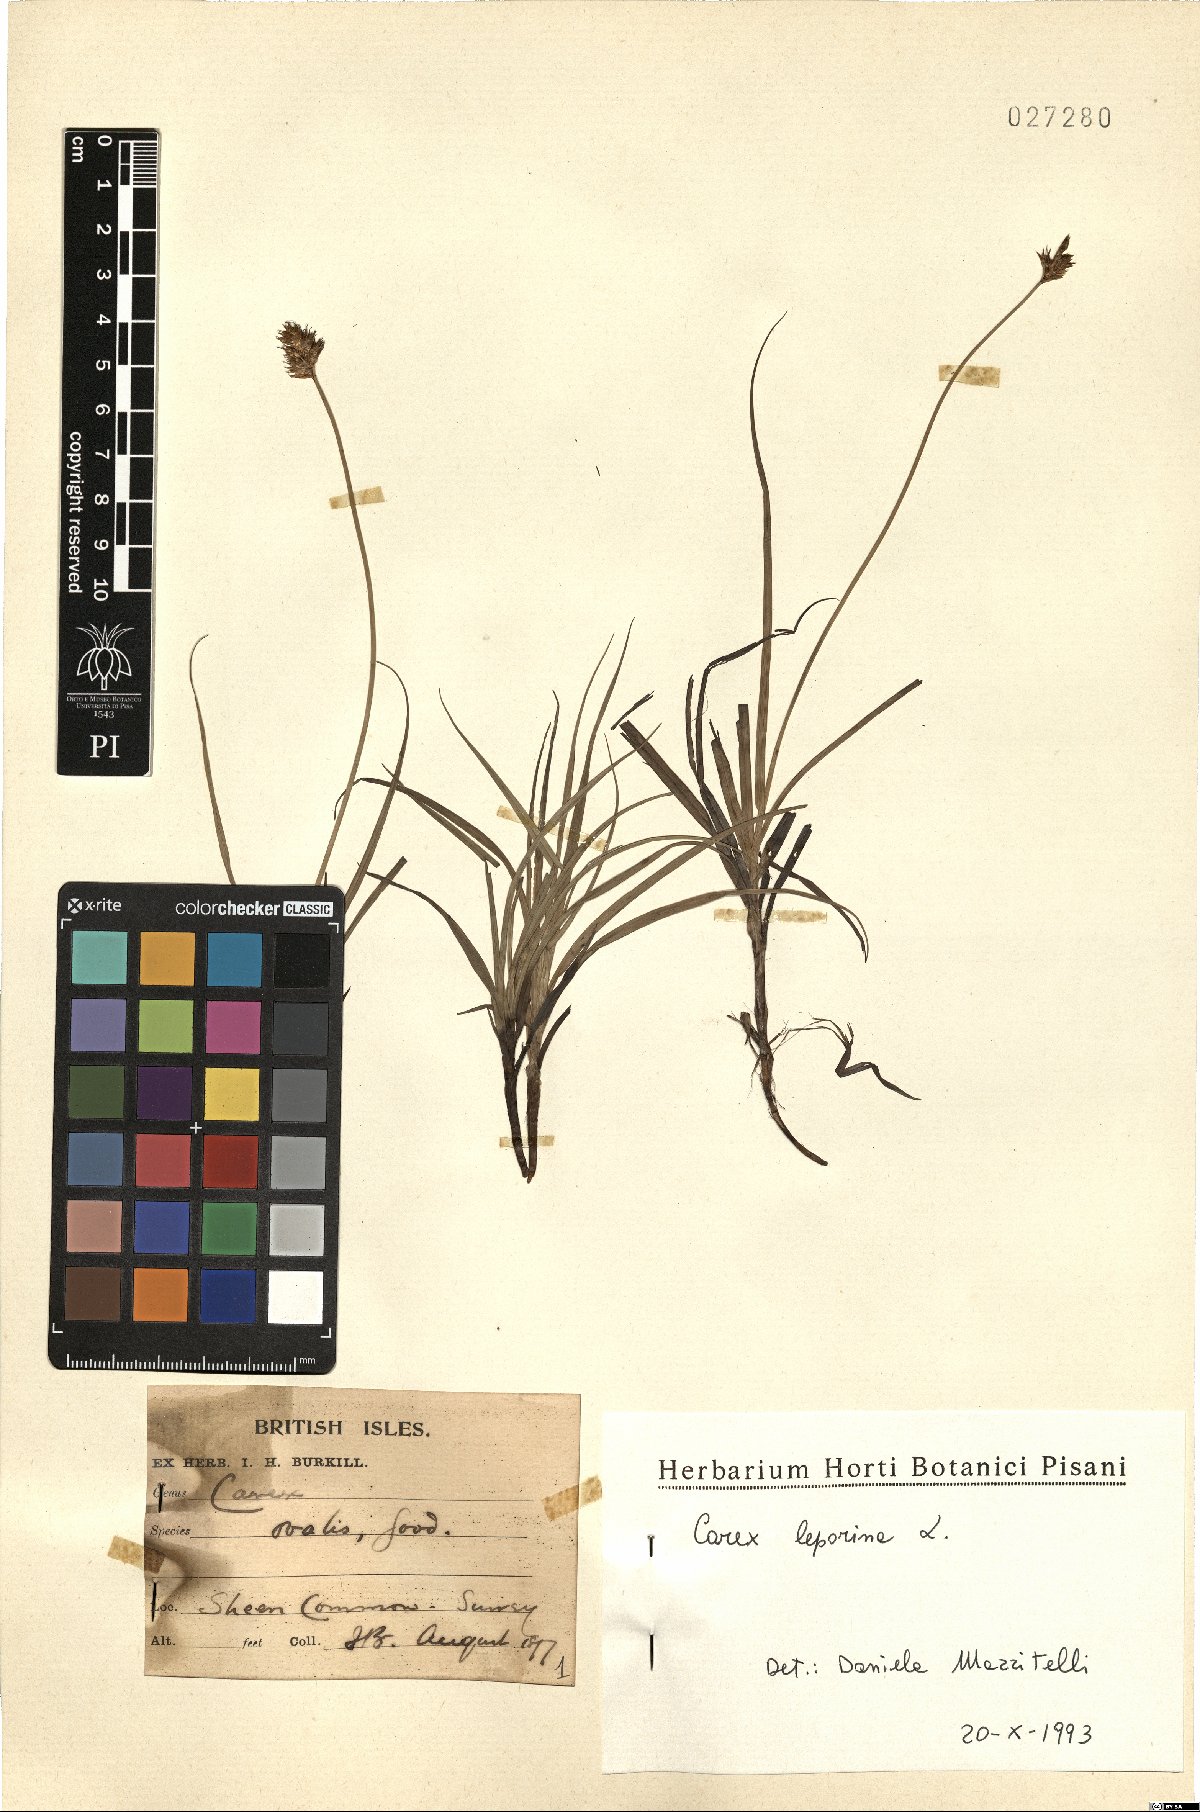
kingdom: Plantae
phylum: Tracheophyta
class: Liliopsida
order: Poales
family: Cyperaceae
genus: Carex
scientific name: Carex leporina
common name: Oval sedge
